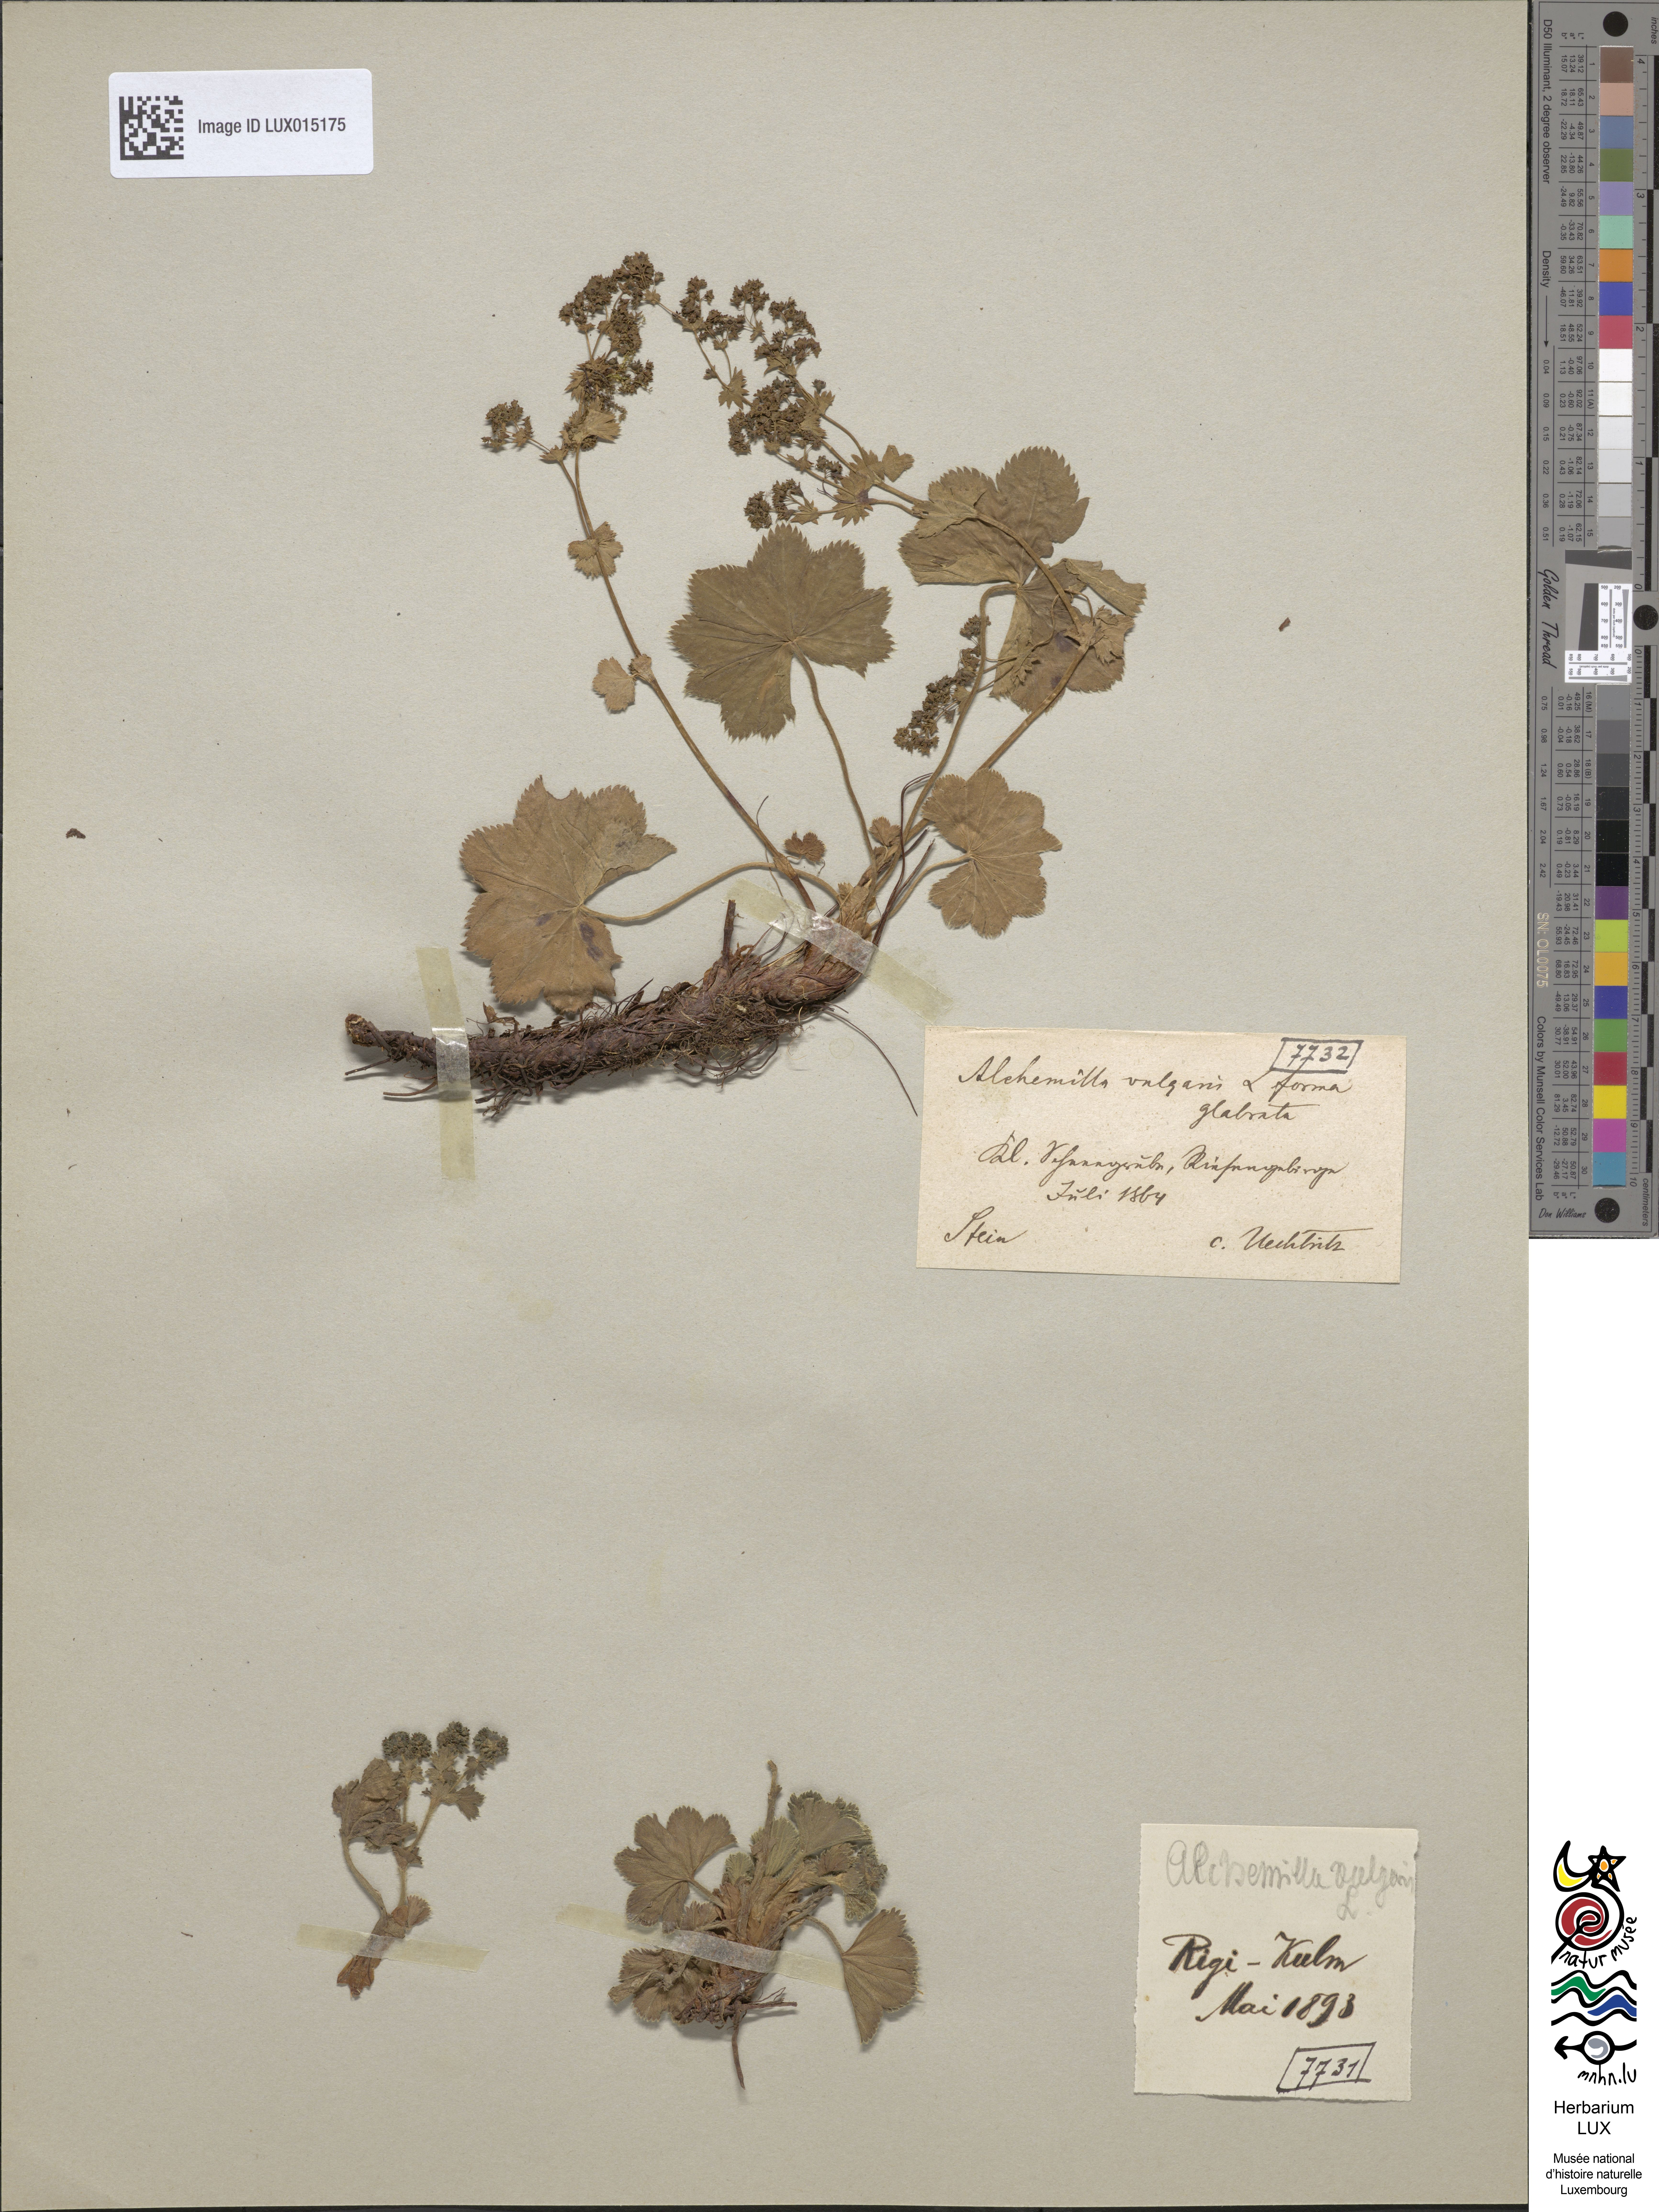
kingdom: Plantae
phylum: Tracheophyta
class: Magnoliopsida
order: Rosales
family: Rosaceae
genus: Alchemilla
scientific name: Alchemilla vulgaris
